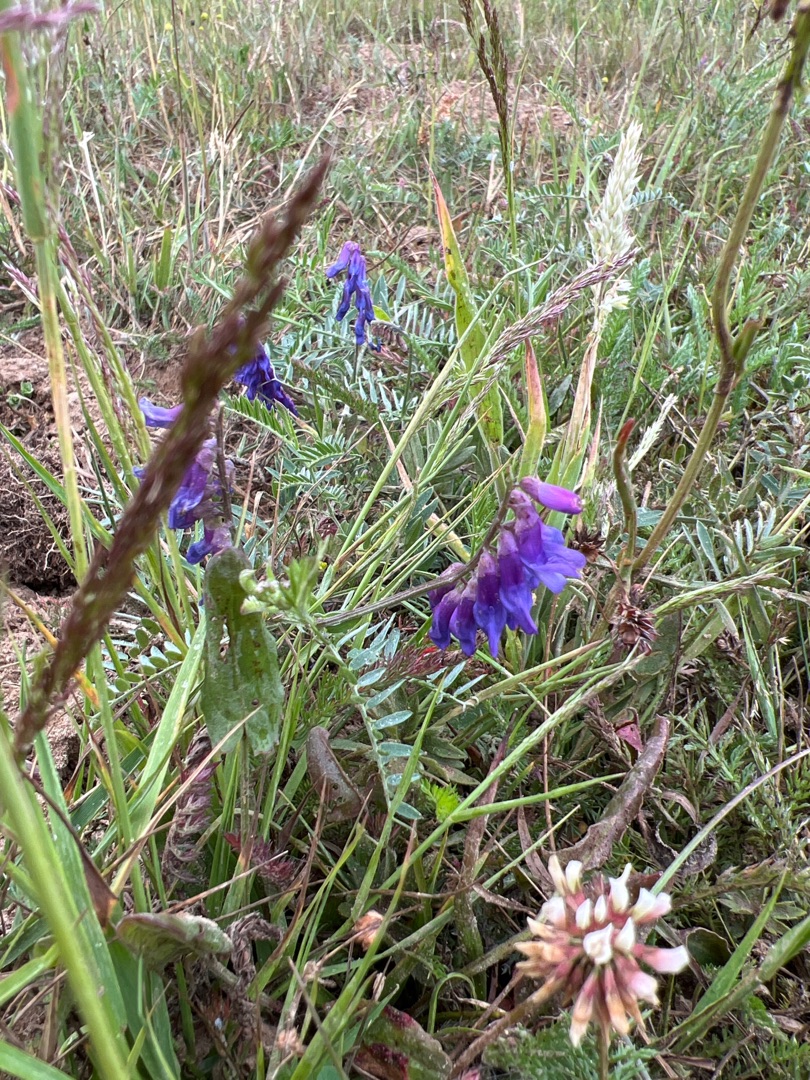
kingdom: Plantae
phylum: Tracheophyta
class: Magnoliopsida
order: Fabales
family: Fabaceae
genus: Vicia
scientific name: Vicia cracca
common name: Muse-vikke
